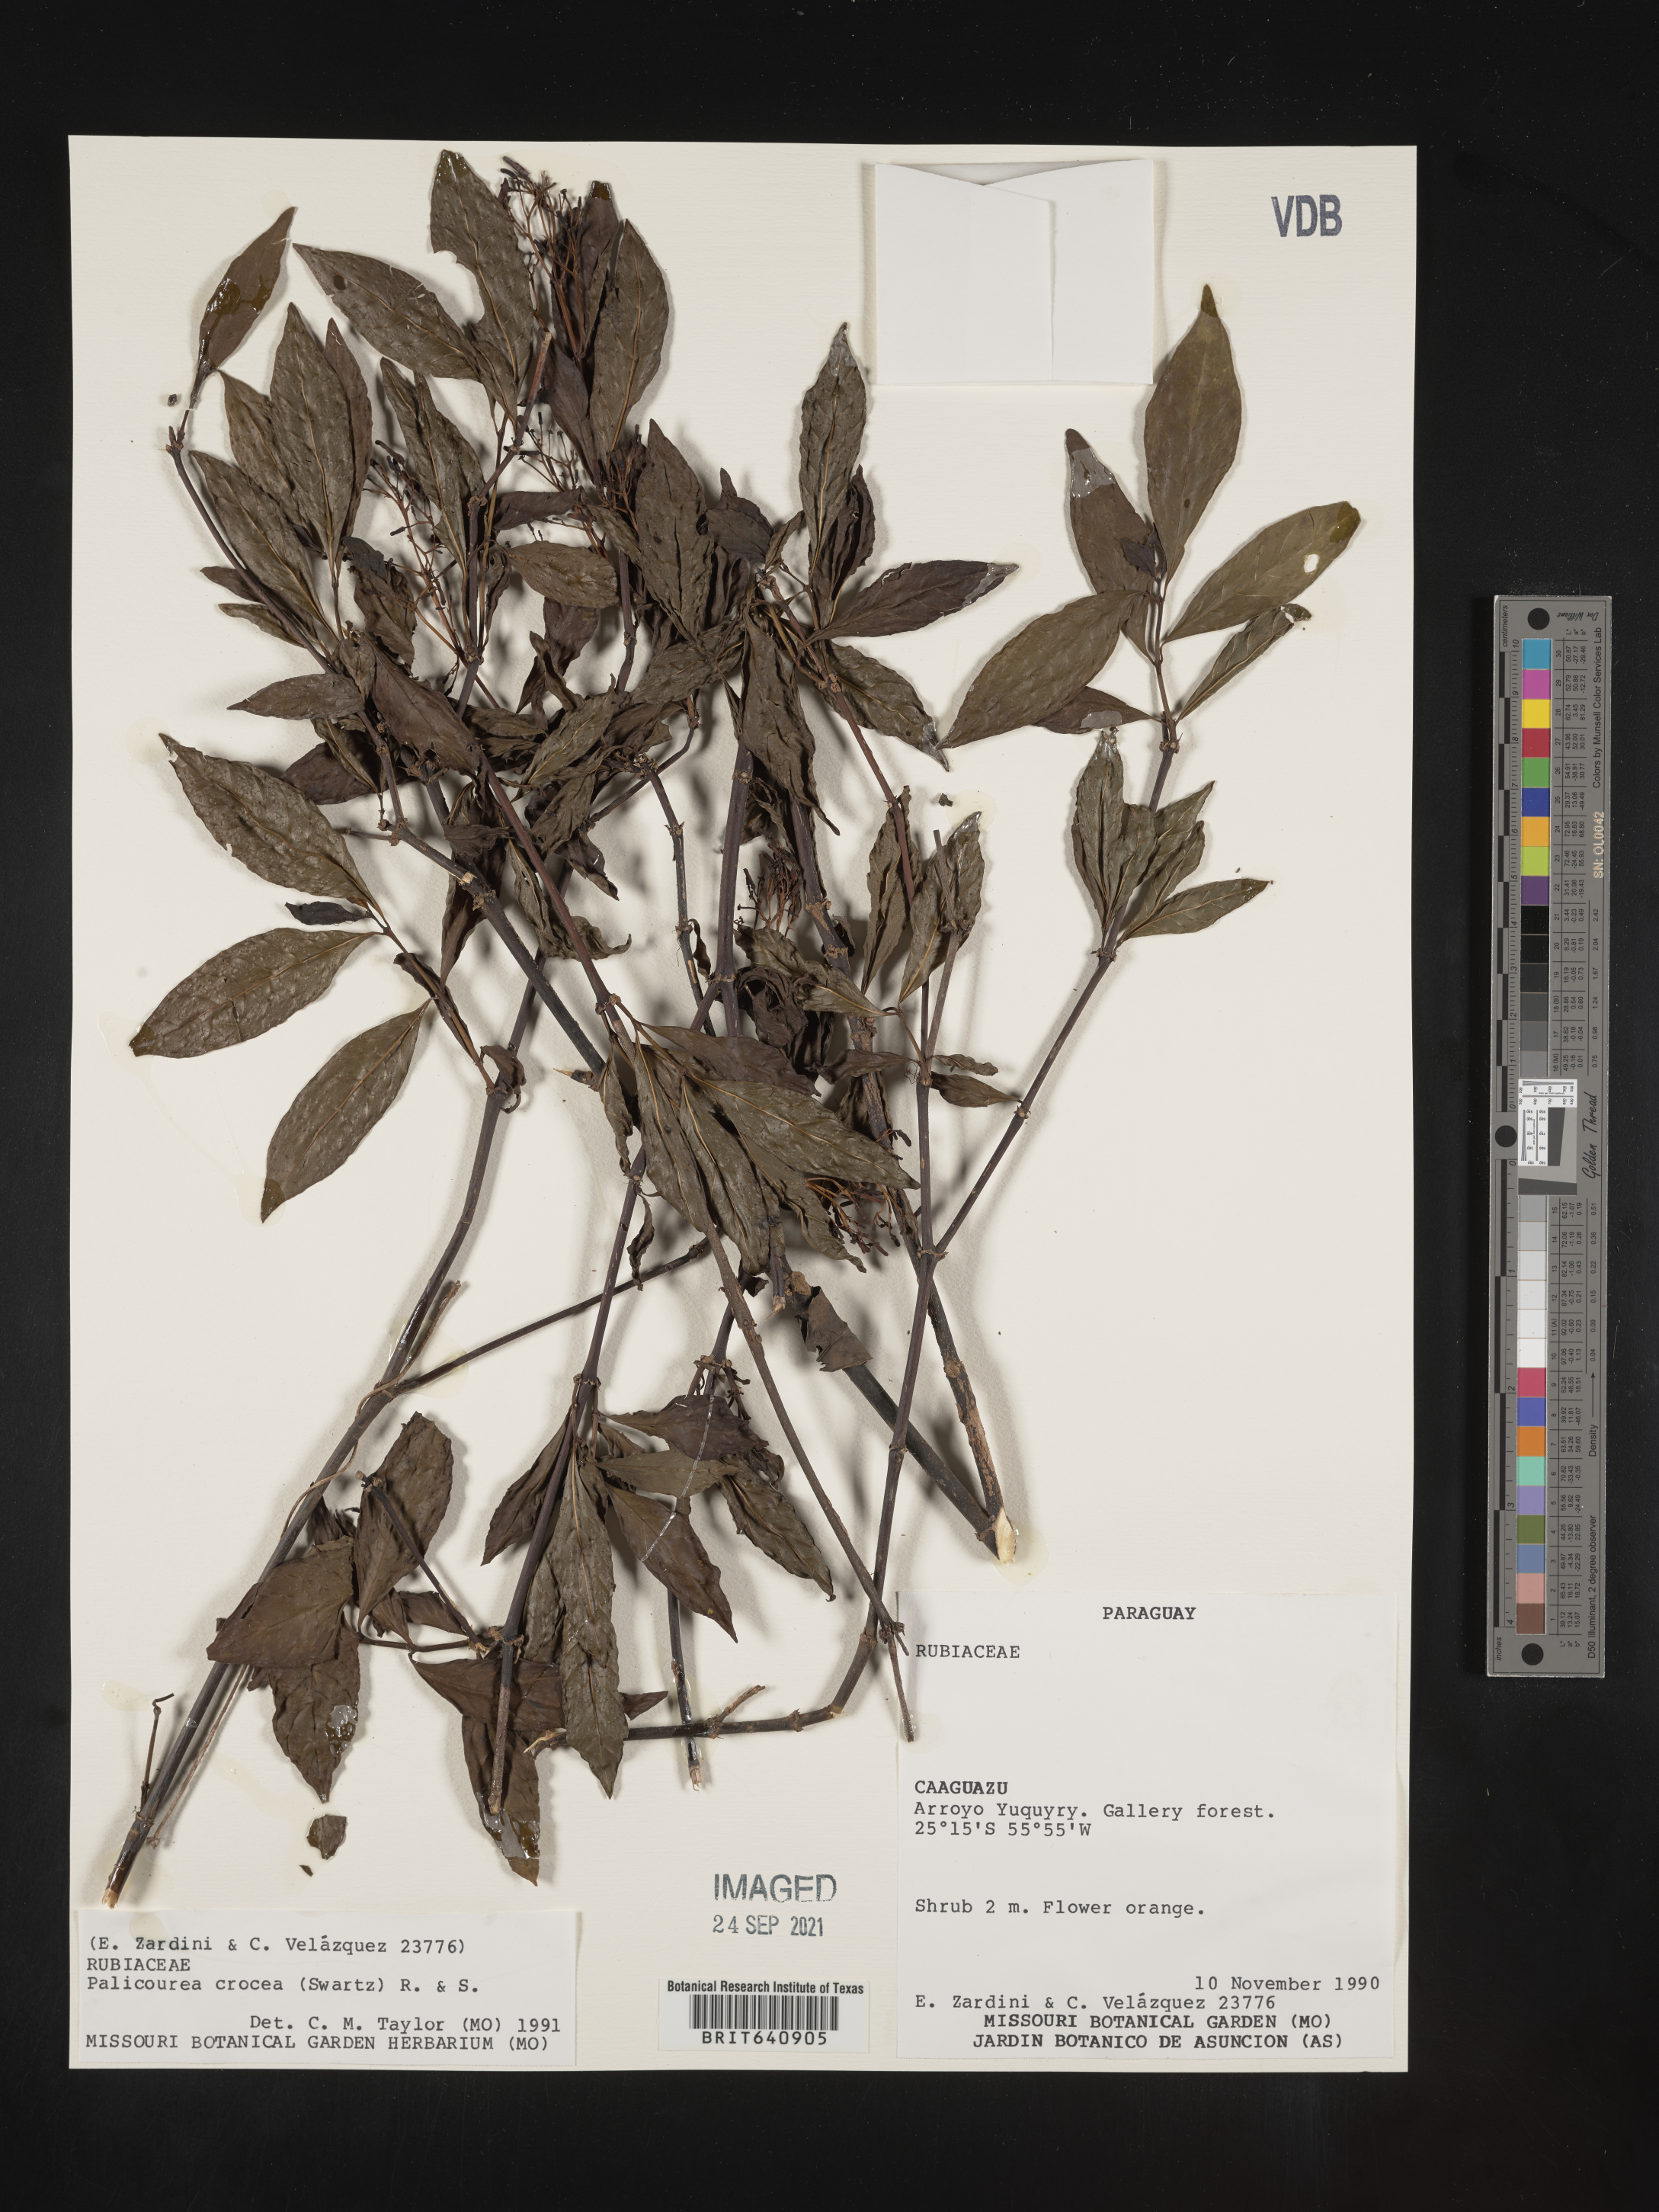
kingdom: Plantae
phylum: Tracheophyta
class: Magnoliopsida
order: Gentianales
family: Rubiaceae
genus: Palicourea
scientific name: Palicourea
